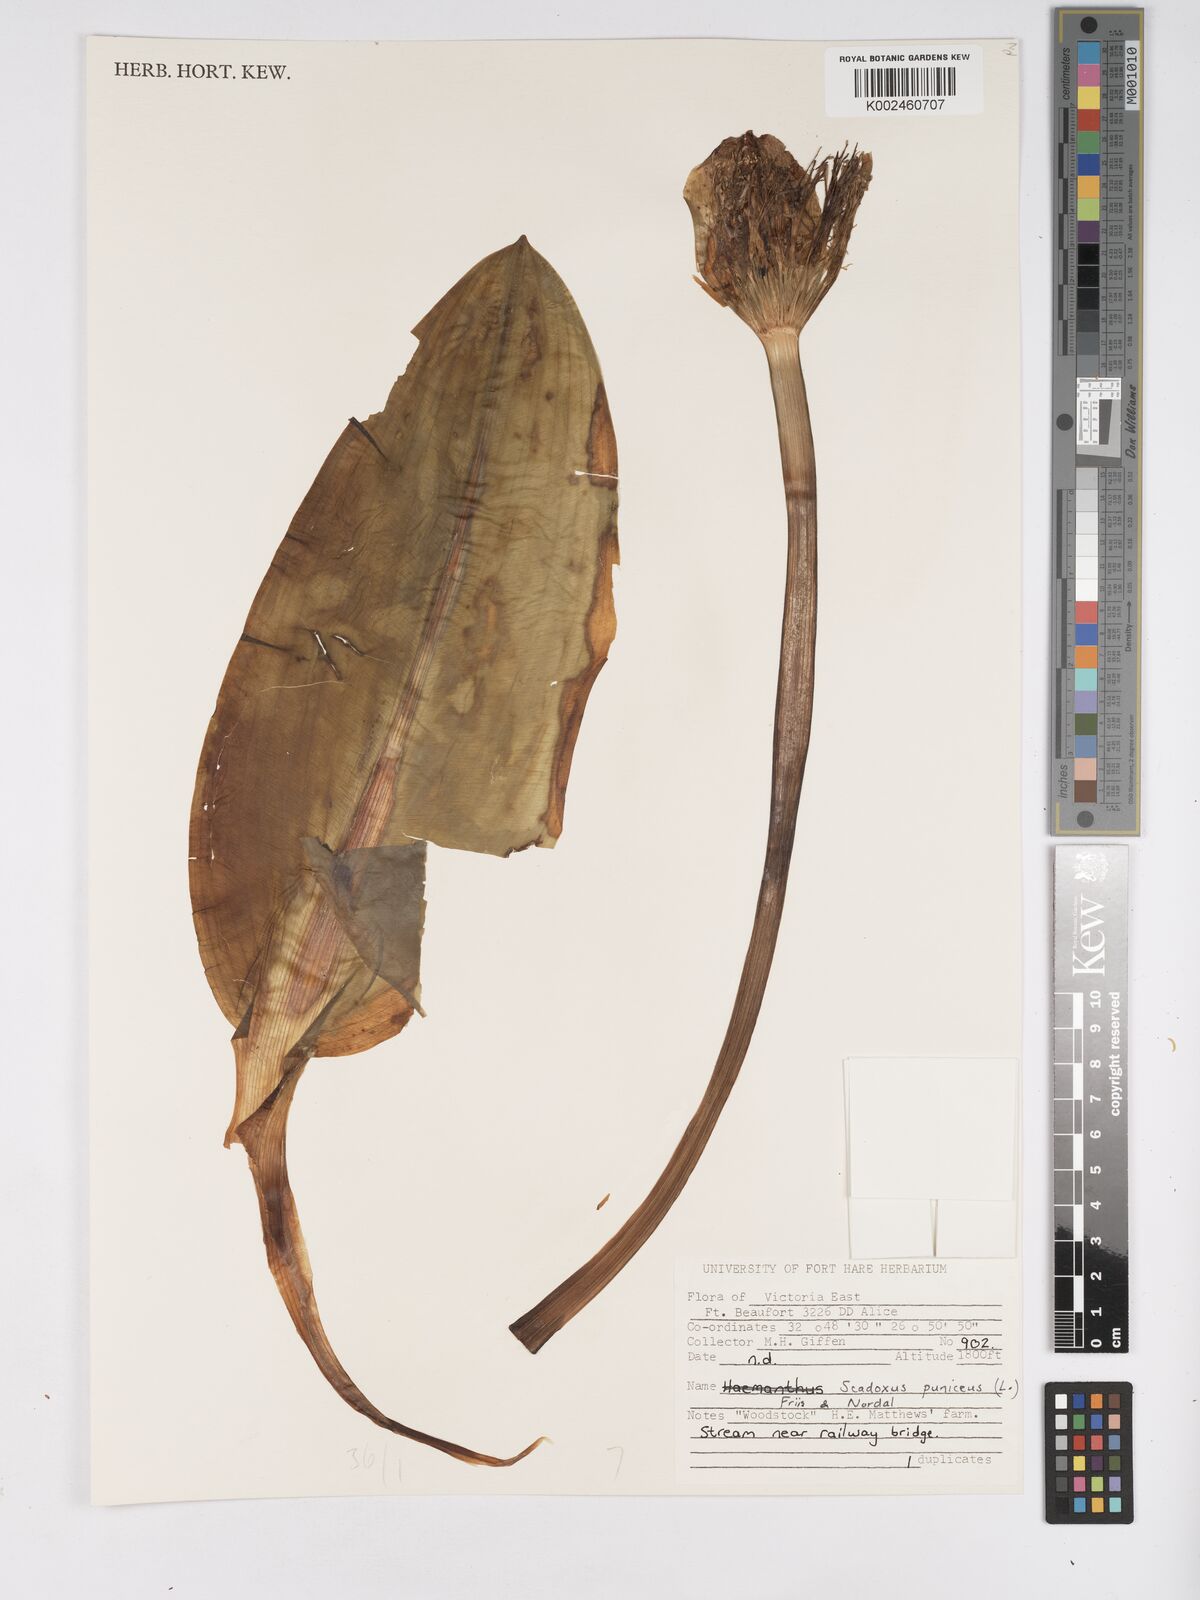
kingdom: Plantae
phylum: Tracheophyta
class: Liliopsida
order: Asparagales
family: Amaryllidaceae
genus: Scadoxus
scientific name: Scadoxus puniceus
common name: Royal-paintbrush
